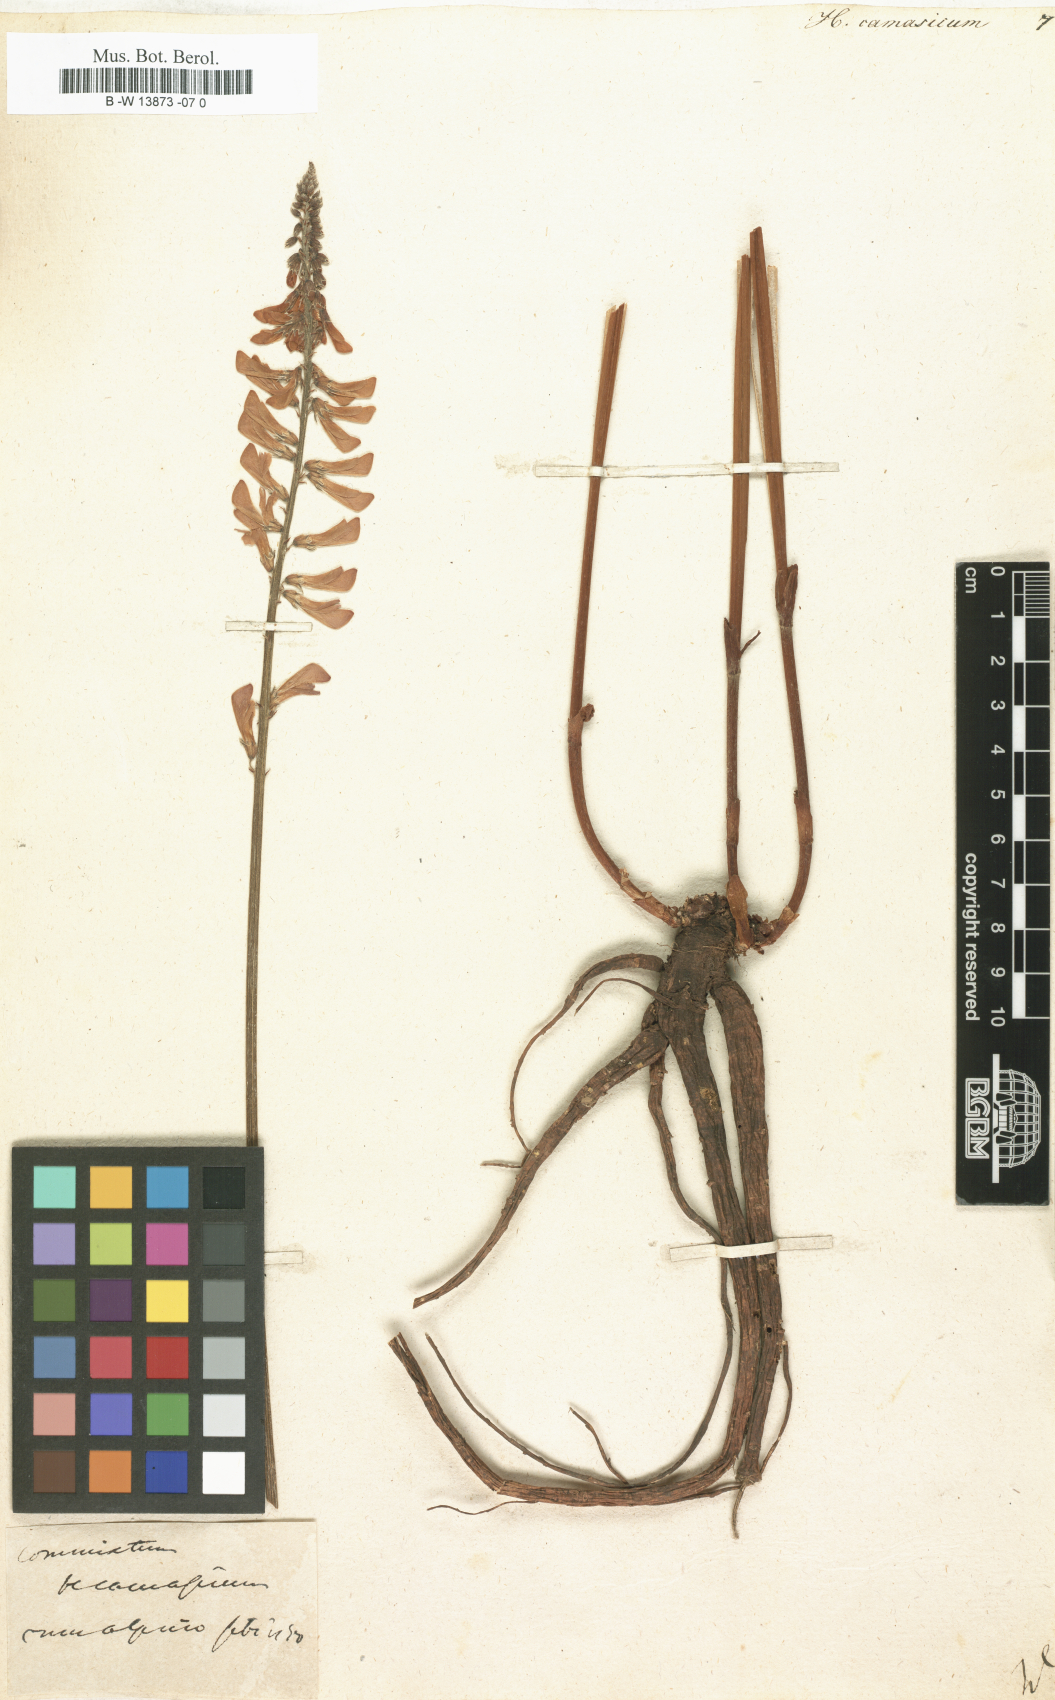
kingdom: Plantae
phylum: Tracheophyta
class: Magnoliopsida
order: Fabales
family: Fabaceae
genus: Hedysarum
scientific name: Hedysarum caucasicum
